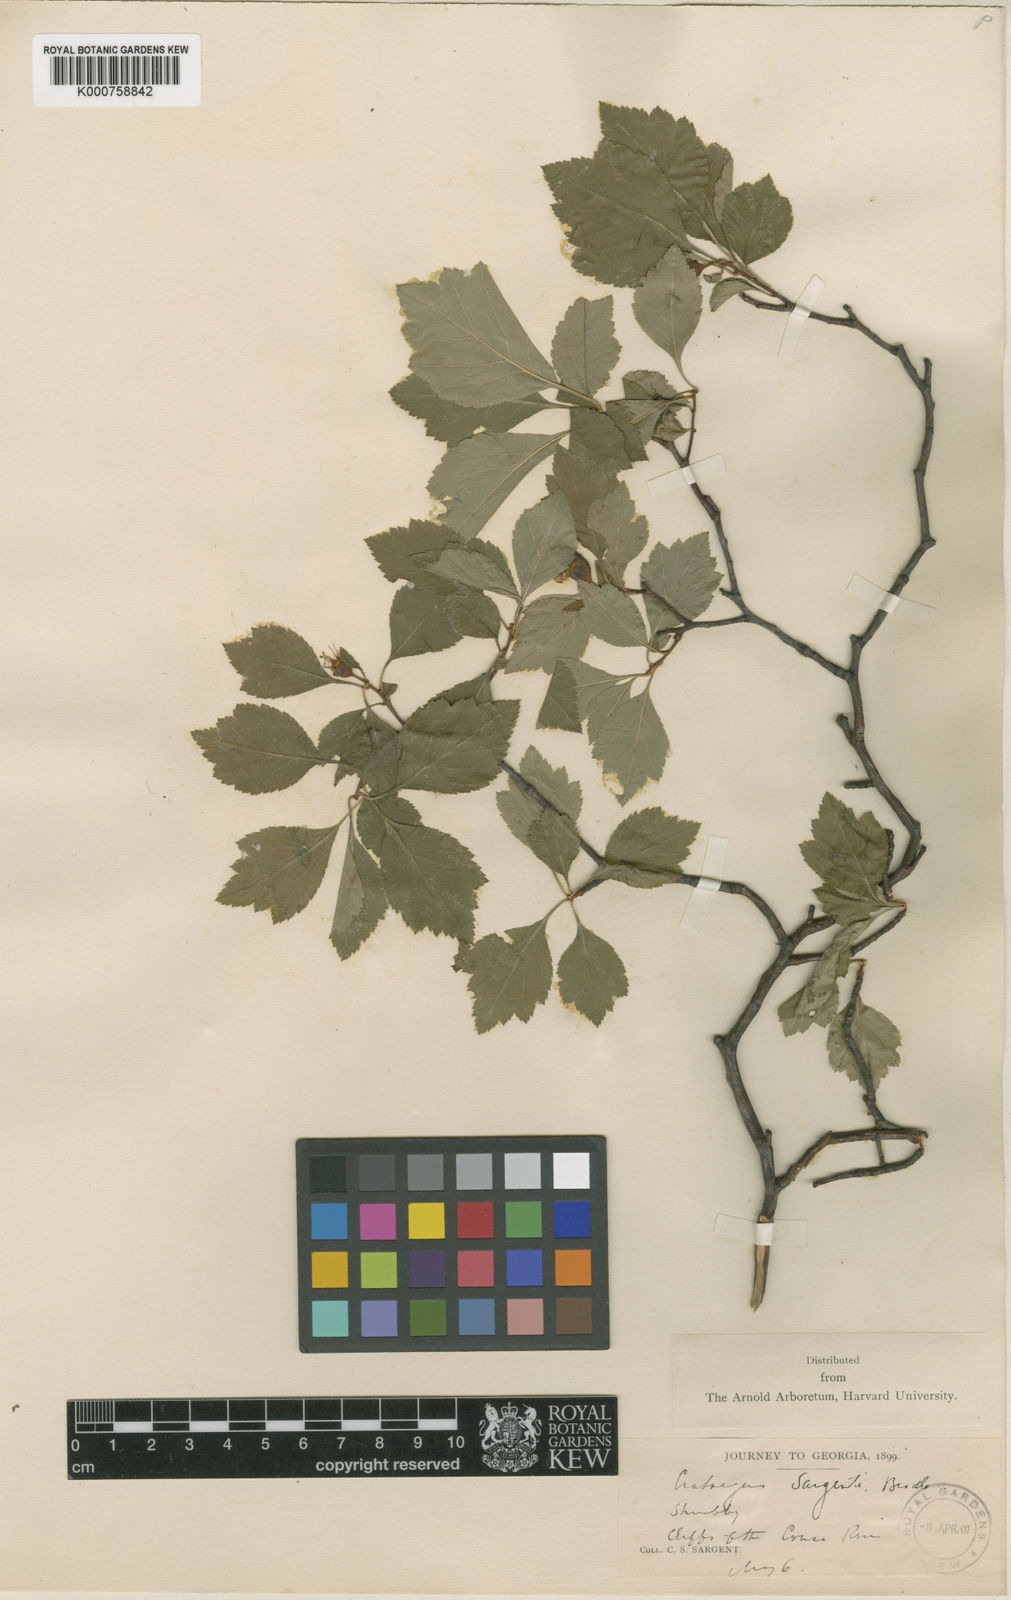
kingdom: Plantae
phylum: Tracheophyta
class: Magnoliopsida
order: Rosales
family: Rosaceae
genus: Crataegus
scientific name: Crataegus sargentii
